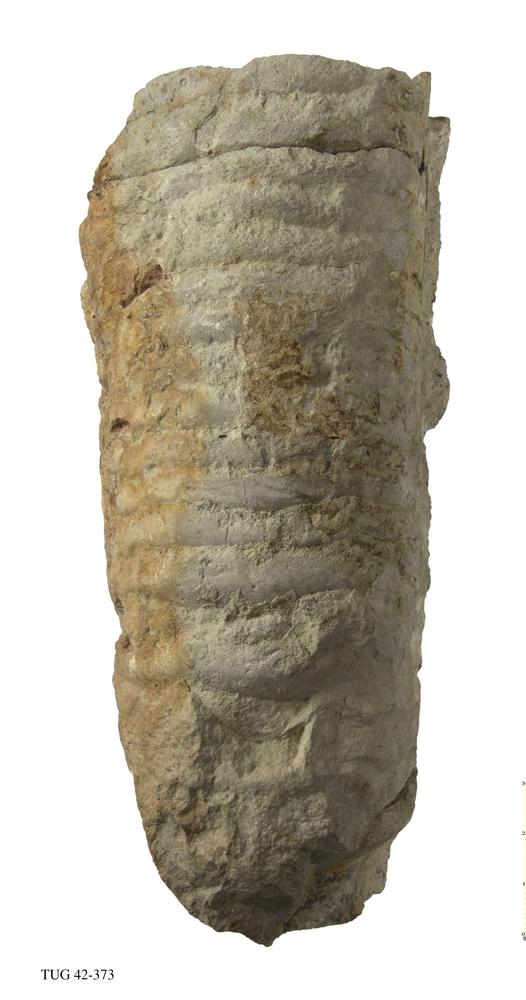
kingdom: Animalia
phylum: Mollusca
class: Cephalopoda
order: Orthocerida
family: Orthoceratidae
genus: Orthoceras
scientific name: Orthoceras
